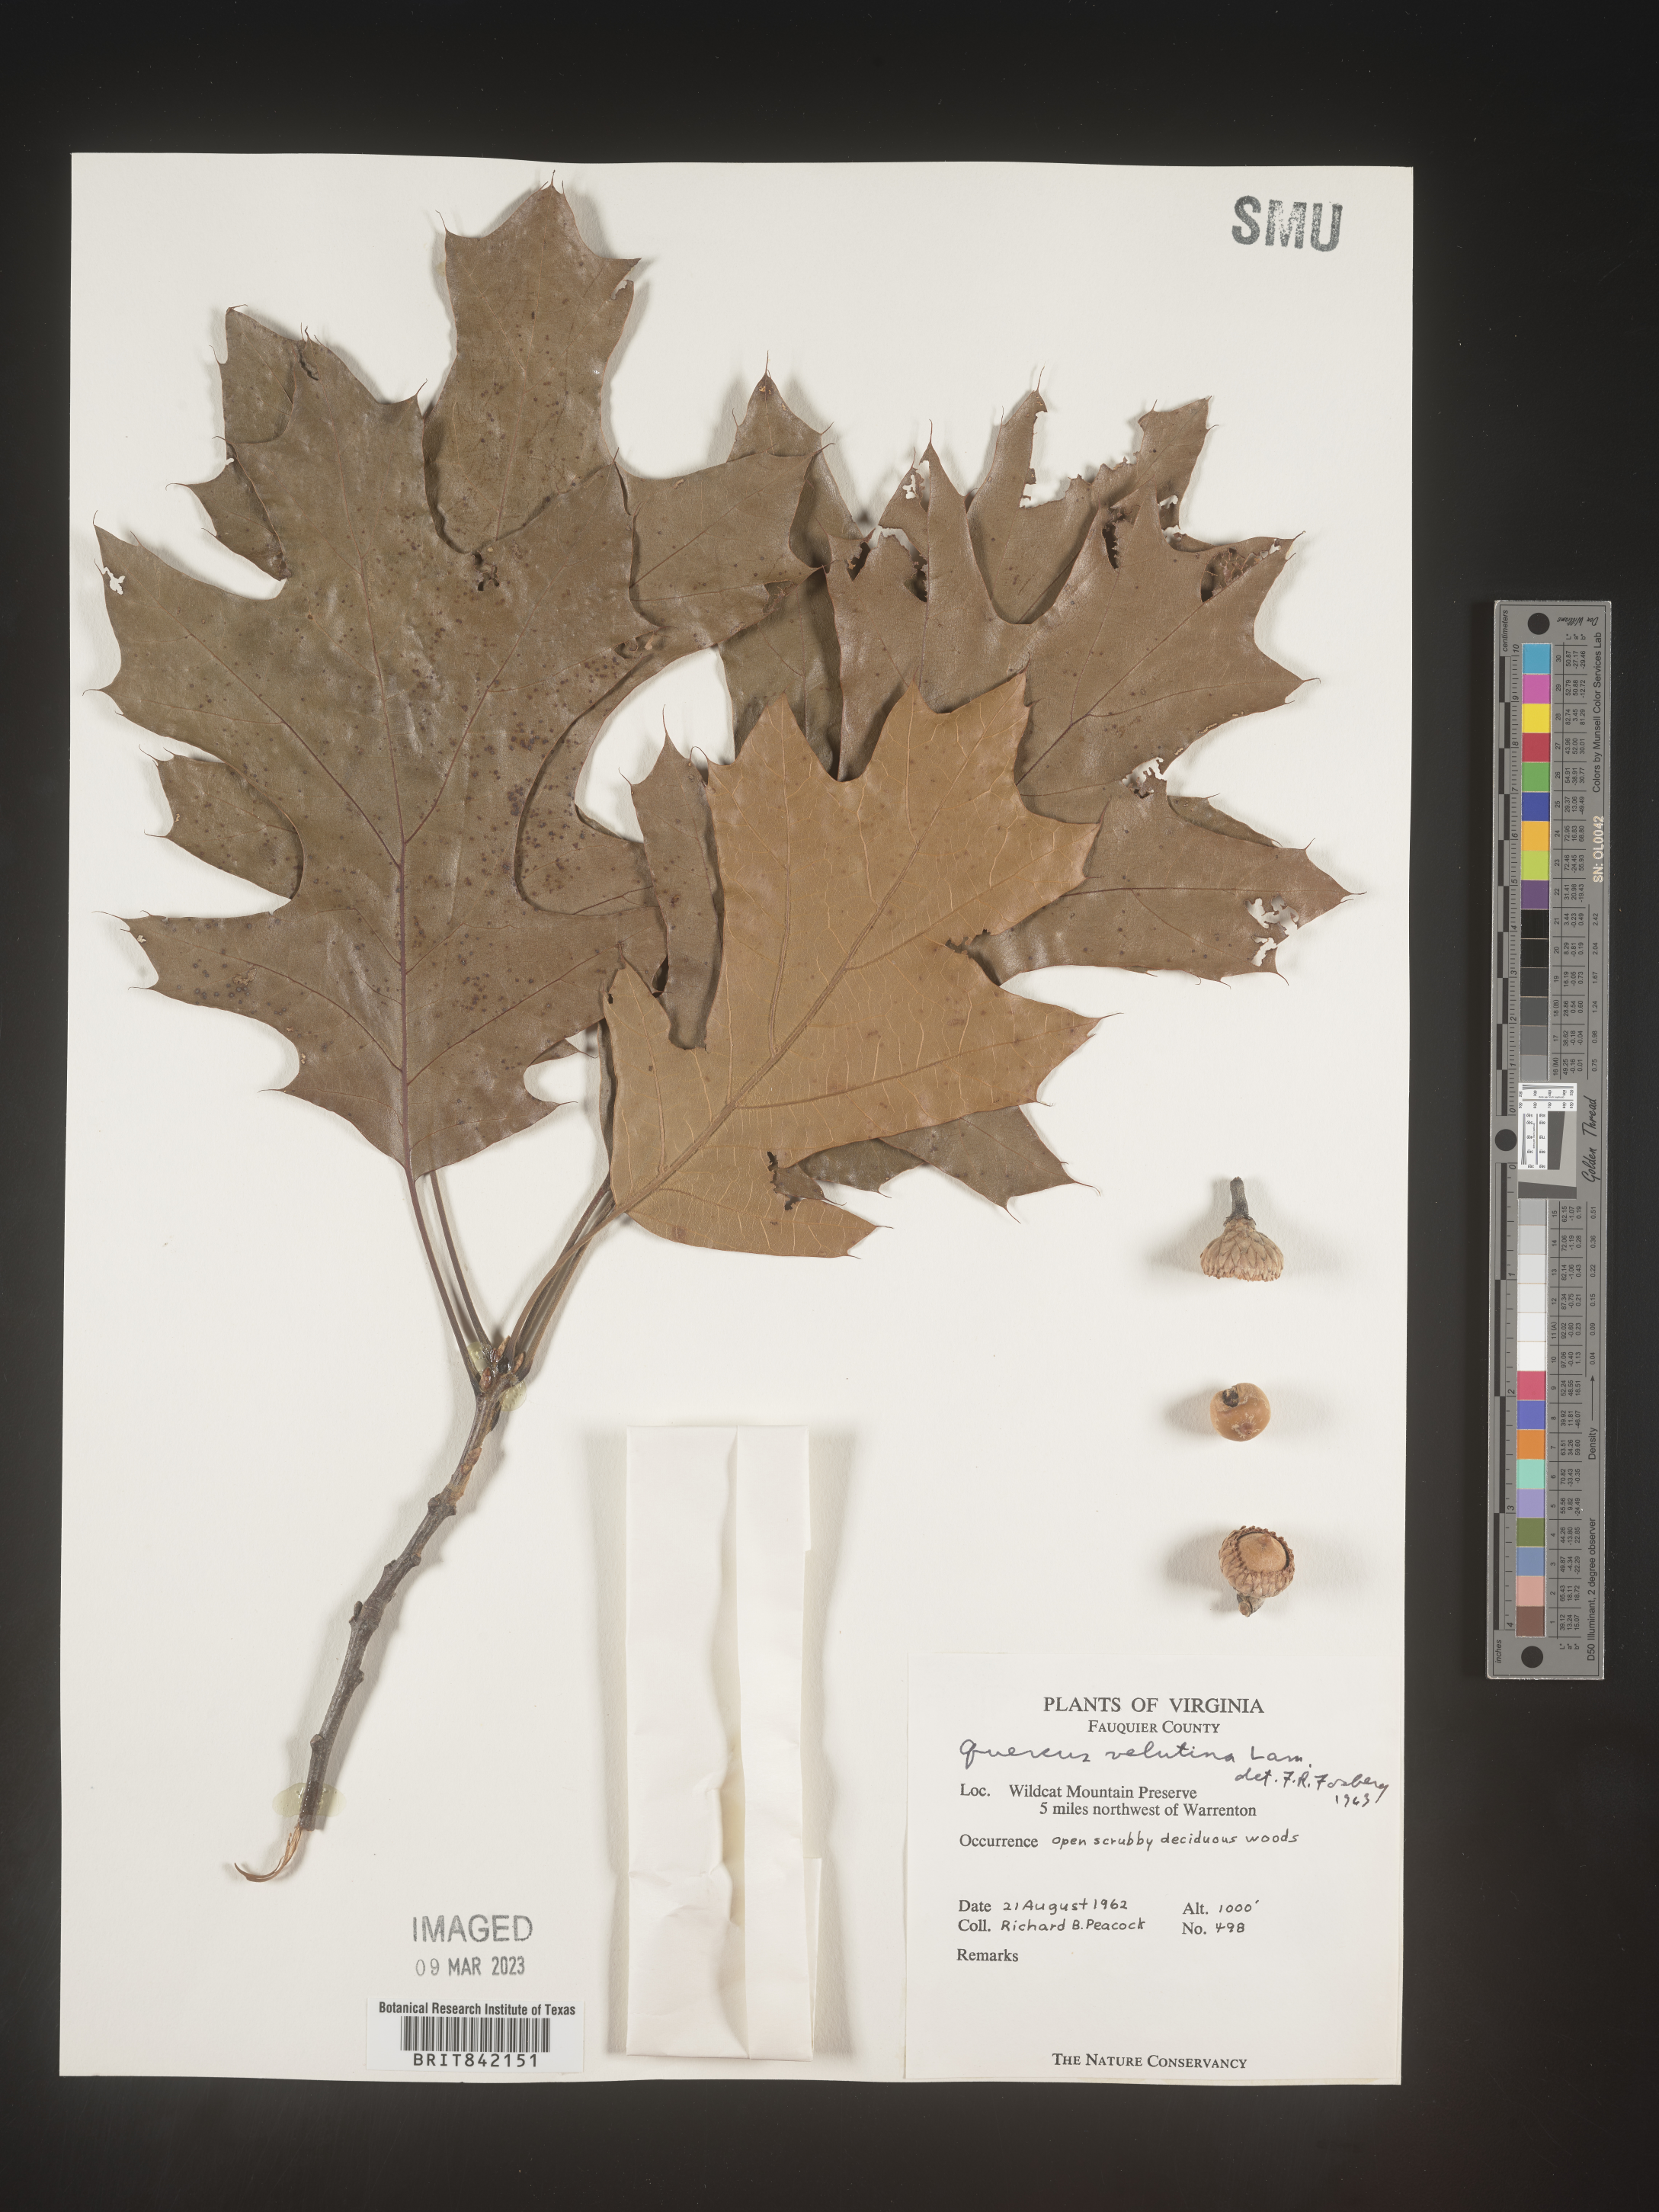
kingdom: Plantae
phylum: Tracheophyta
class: Magnoliopsida
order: Fagales
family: Fagaceae
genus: Quercus
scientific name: Quercus velutina
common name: Black oak
